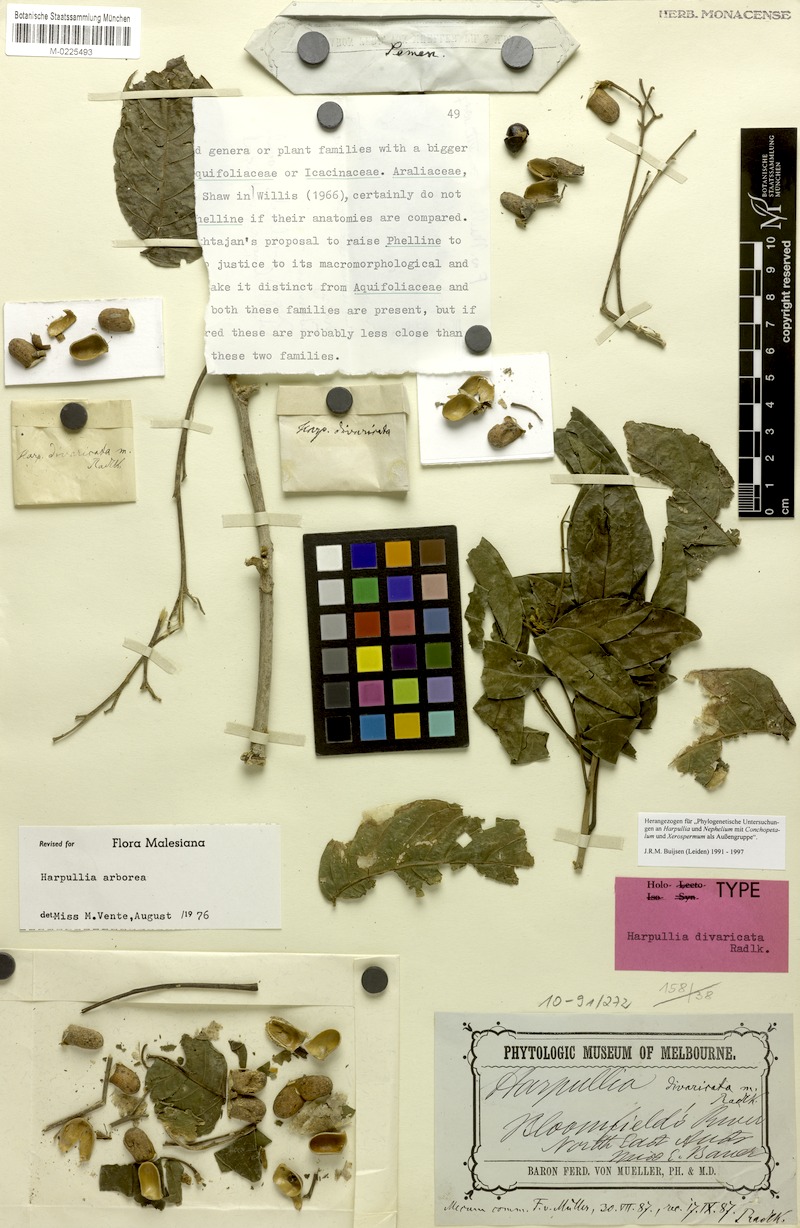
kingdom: Plantae
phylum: Tracheophyta
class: Magnoliopsida
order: Sapindales
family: Sapindaceae
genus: Harpullia
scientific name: Harpullia arborea
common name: Tulip-wood tree
